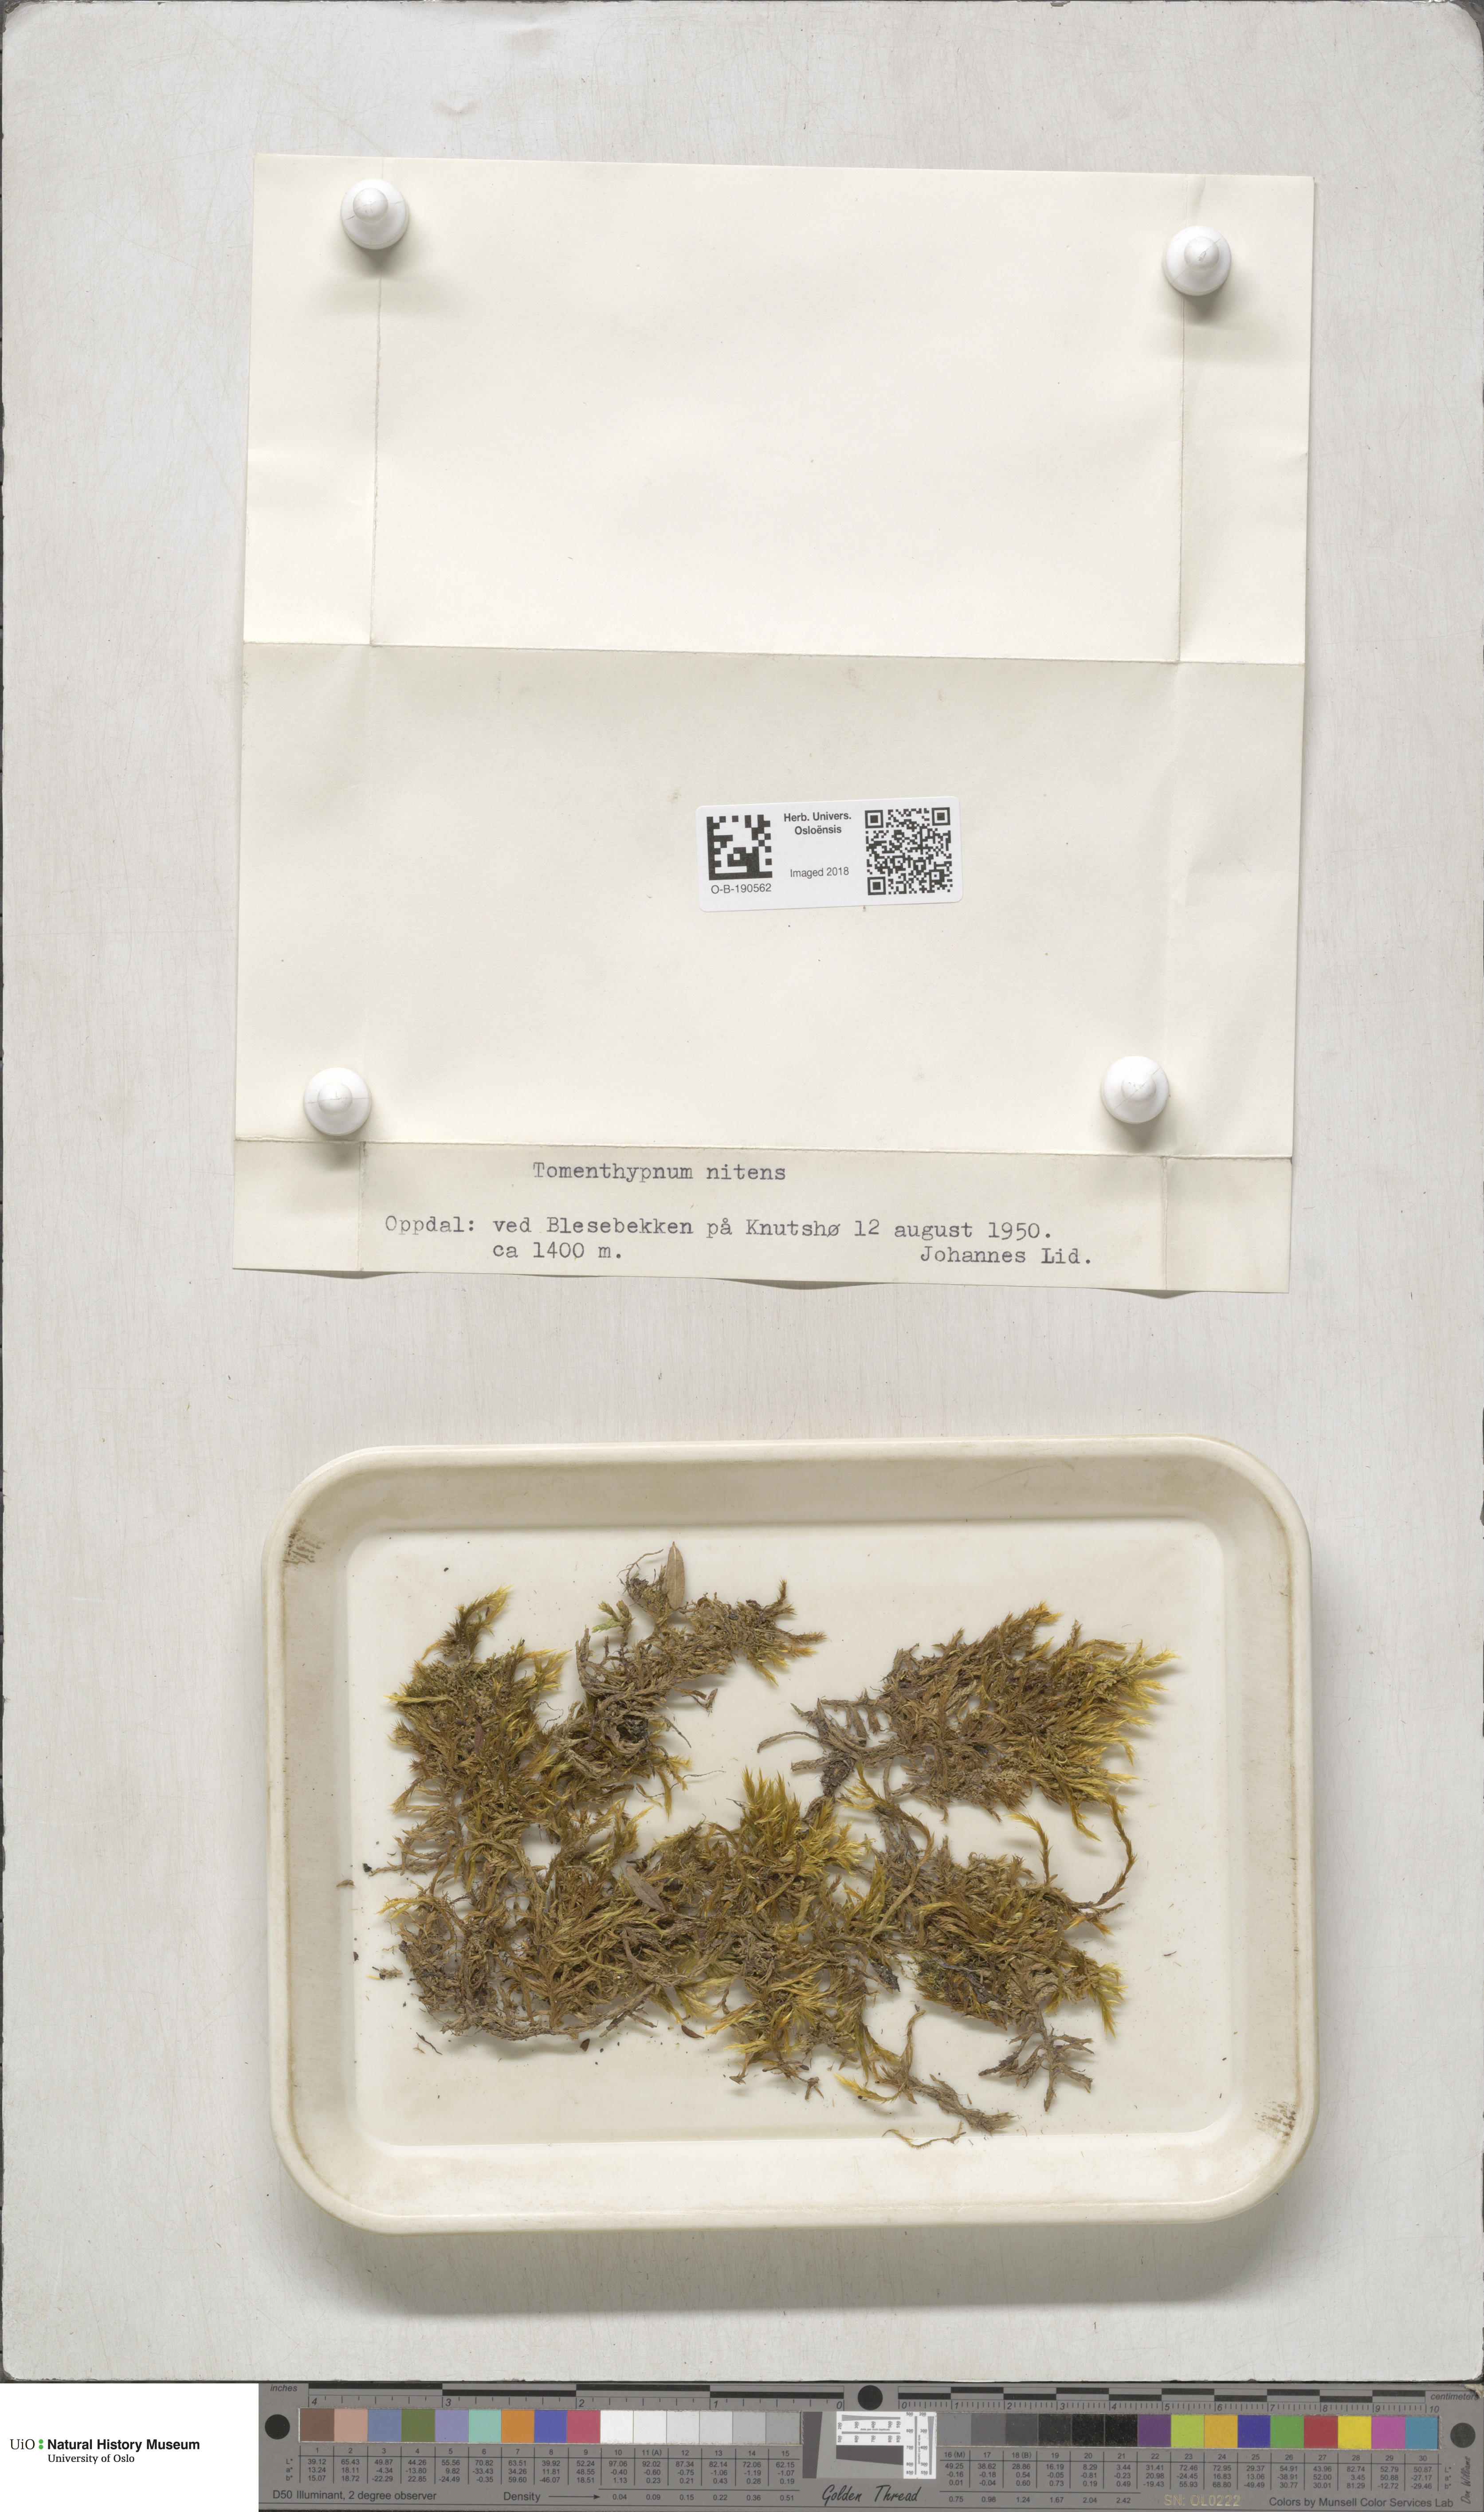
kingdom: Plantae
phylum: Bryophyta
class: Bryopsida
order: Hypnales
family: Amblystegiaceae
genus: Tomentypnum
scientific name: Tomentypnum nitens
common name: Golden fuzzy fen moss
